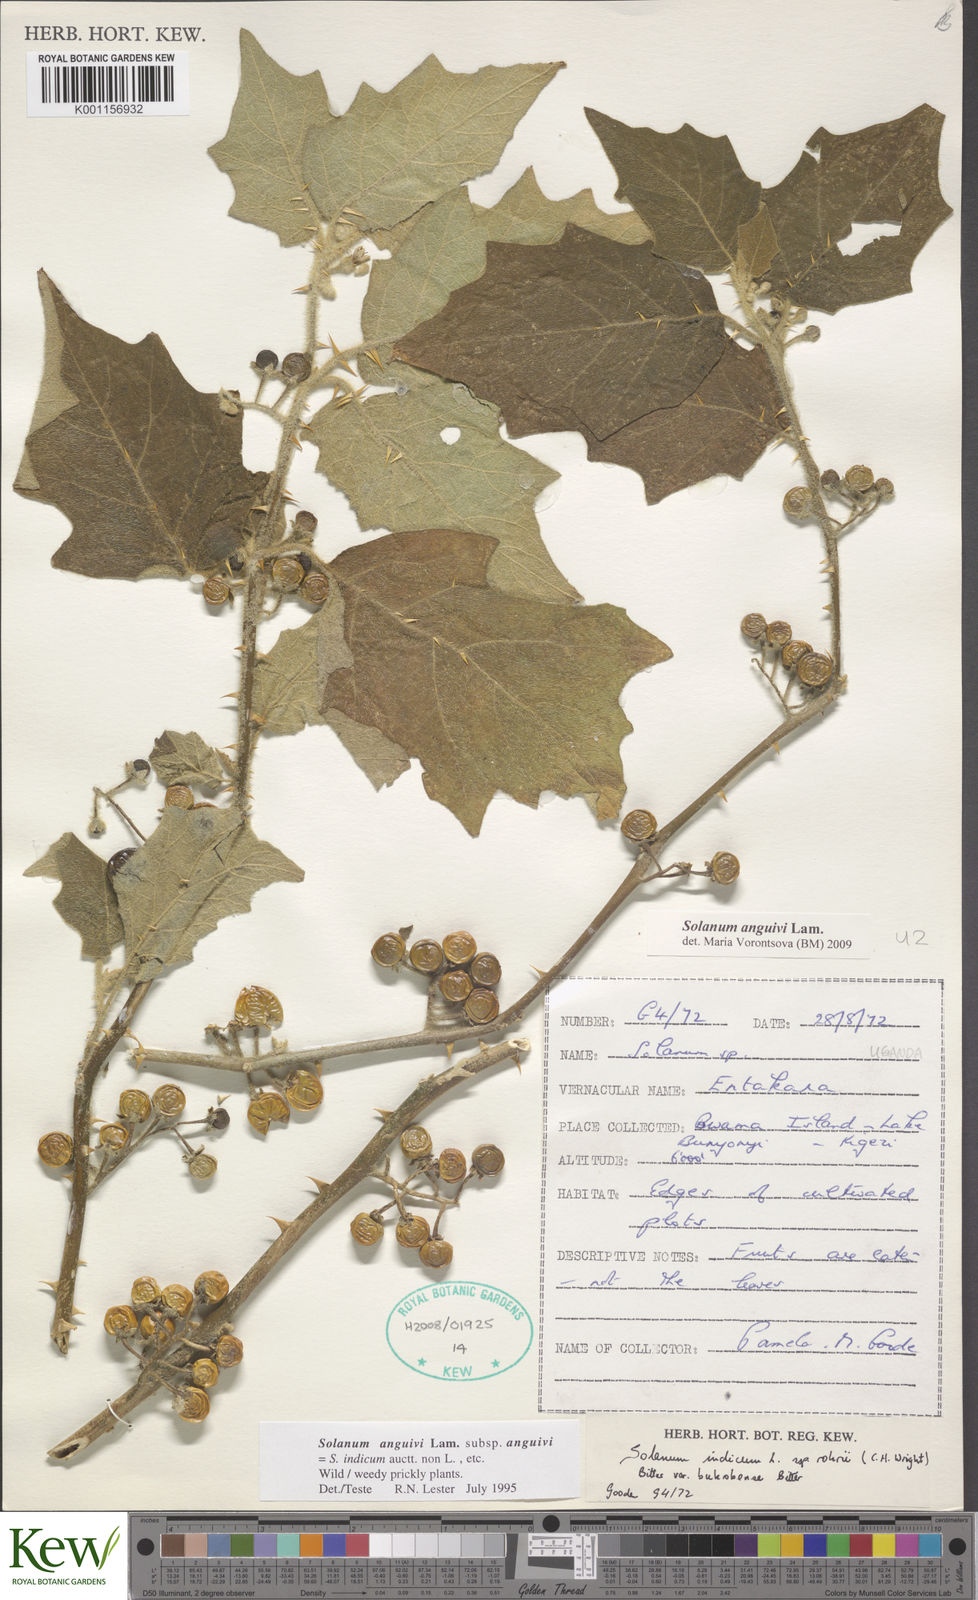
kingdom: Plantae
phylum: Tracheophyta
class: Magnoliopsida
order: Solanales
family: Solanaceae
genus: Solanum
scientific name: Solanum anguivi
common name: Forest bitterberry
